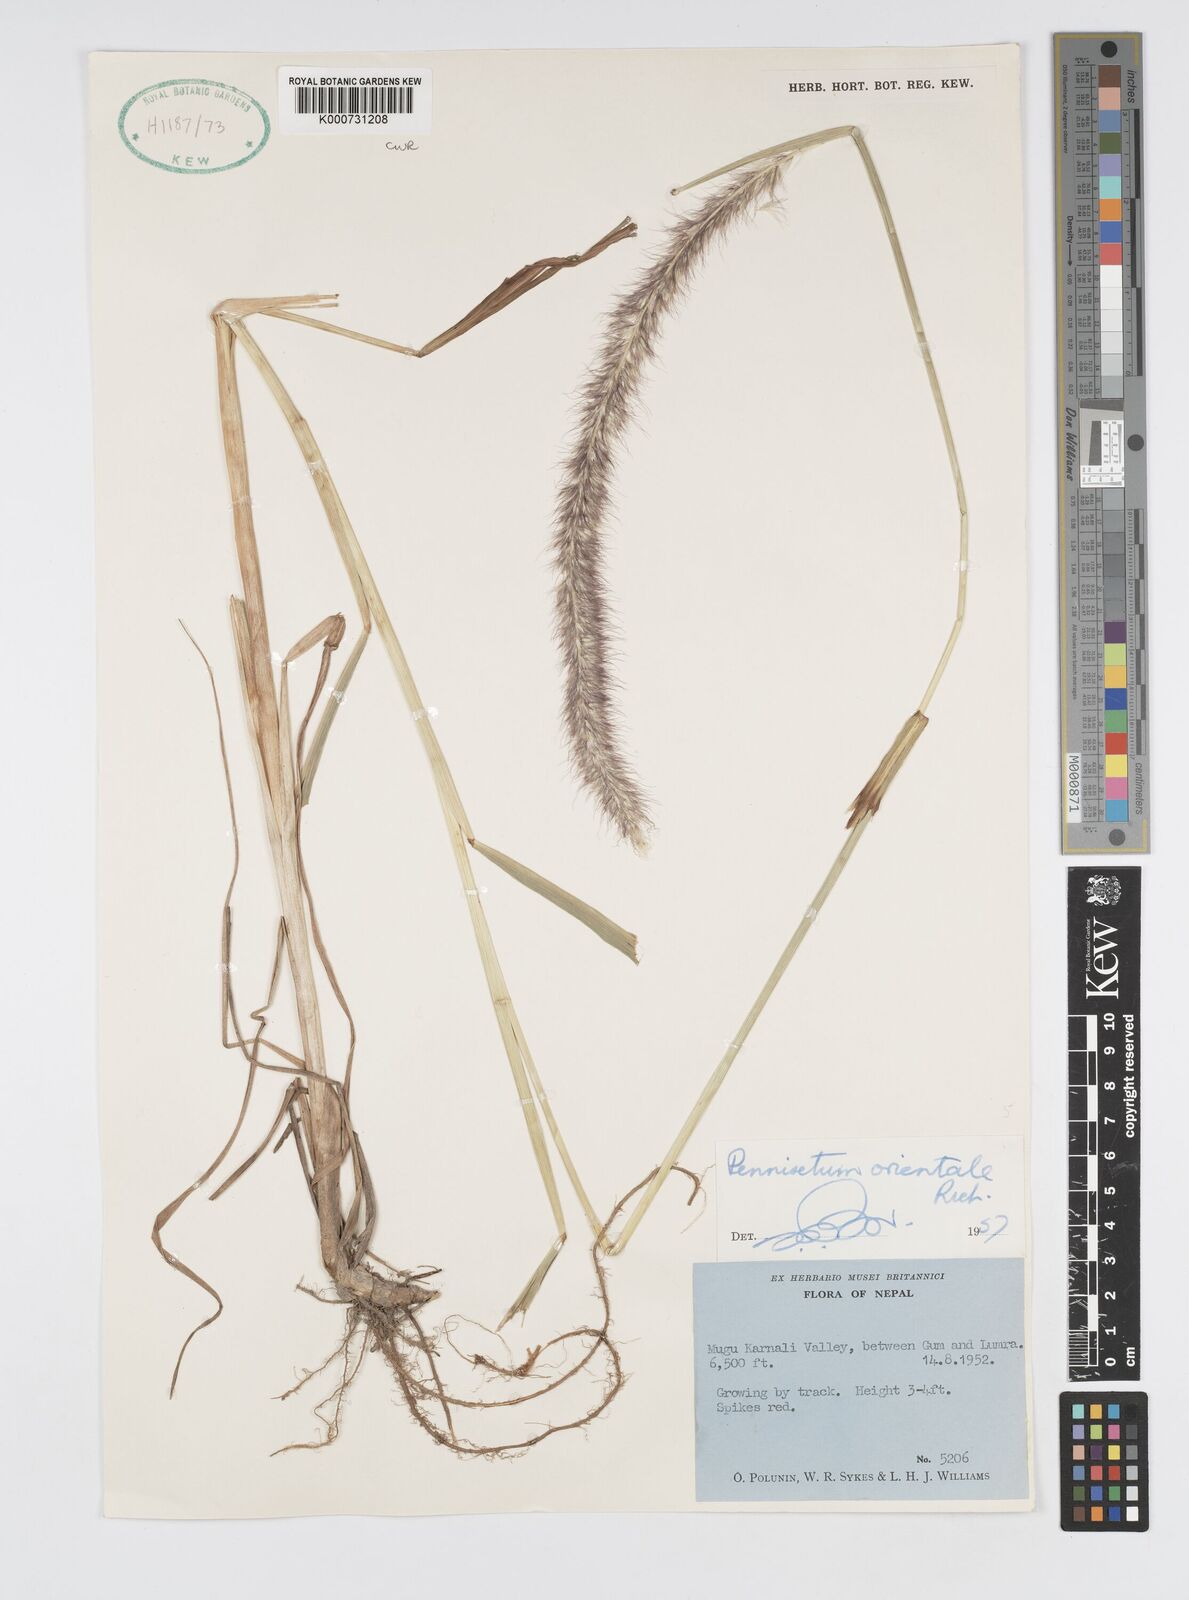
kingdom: Plantae
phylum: Tracheophyta
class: Liliopsida
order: Poales
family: Poaceae
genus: Cenchrus
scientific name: Cenchrus orientalis
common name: Oriental fountain grass
